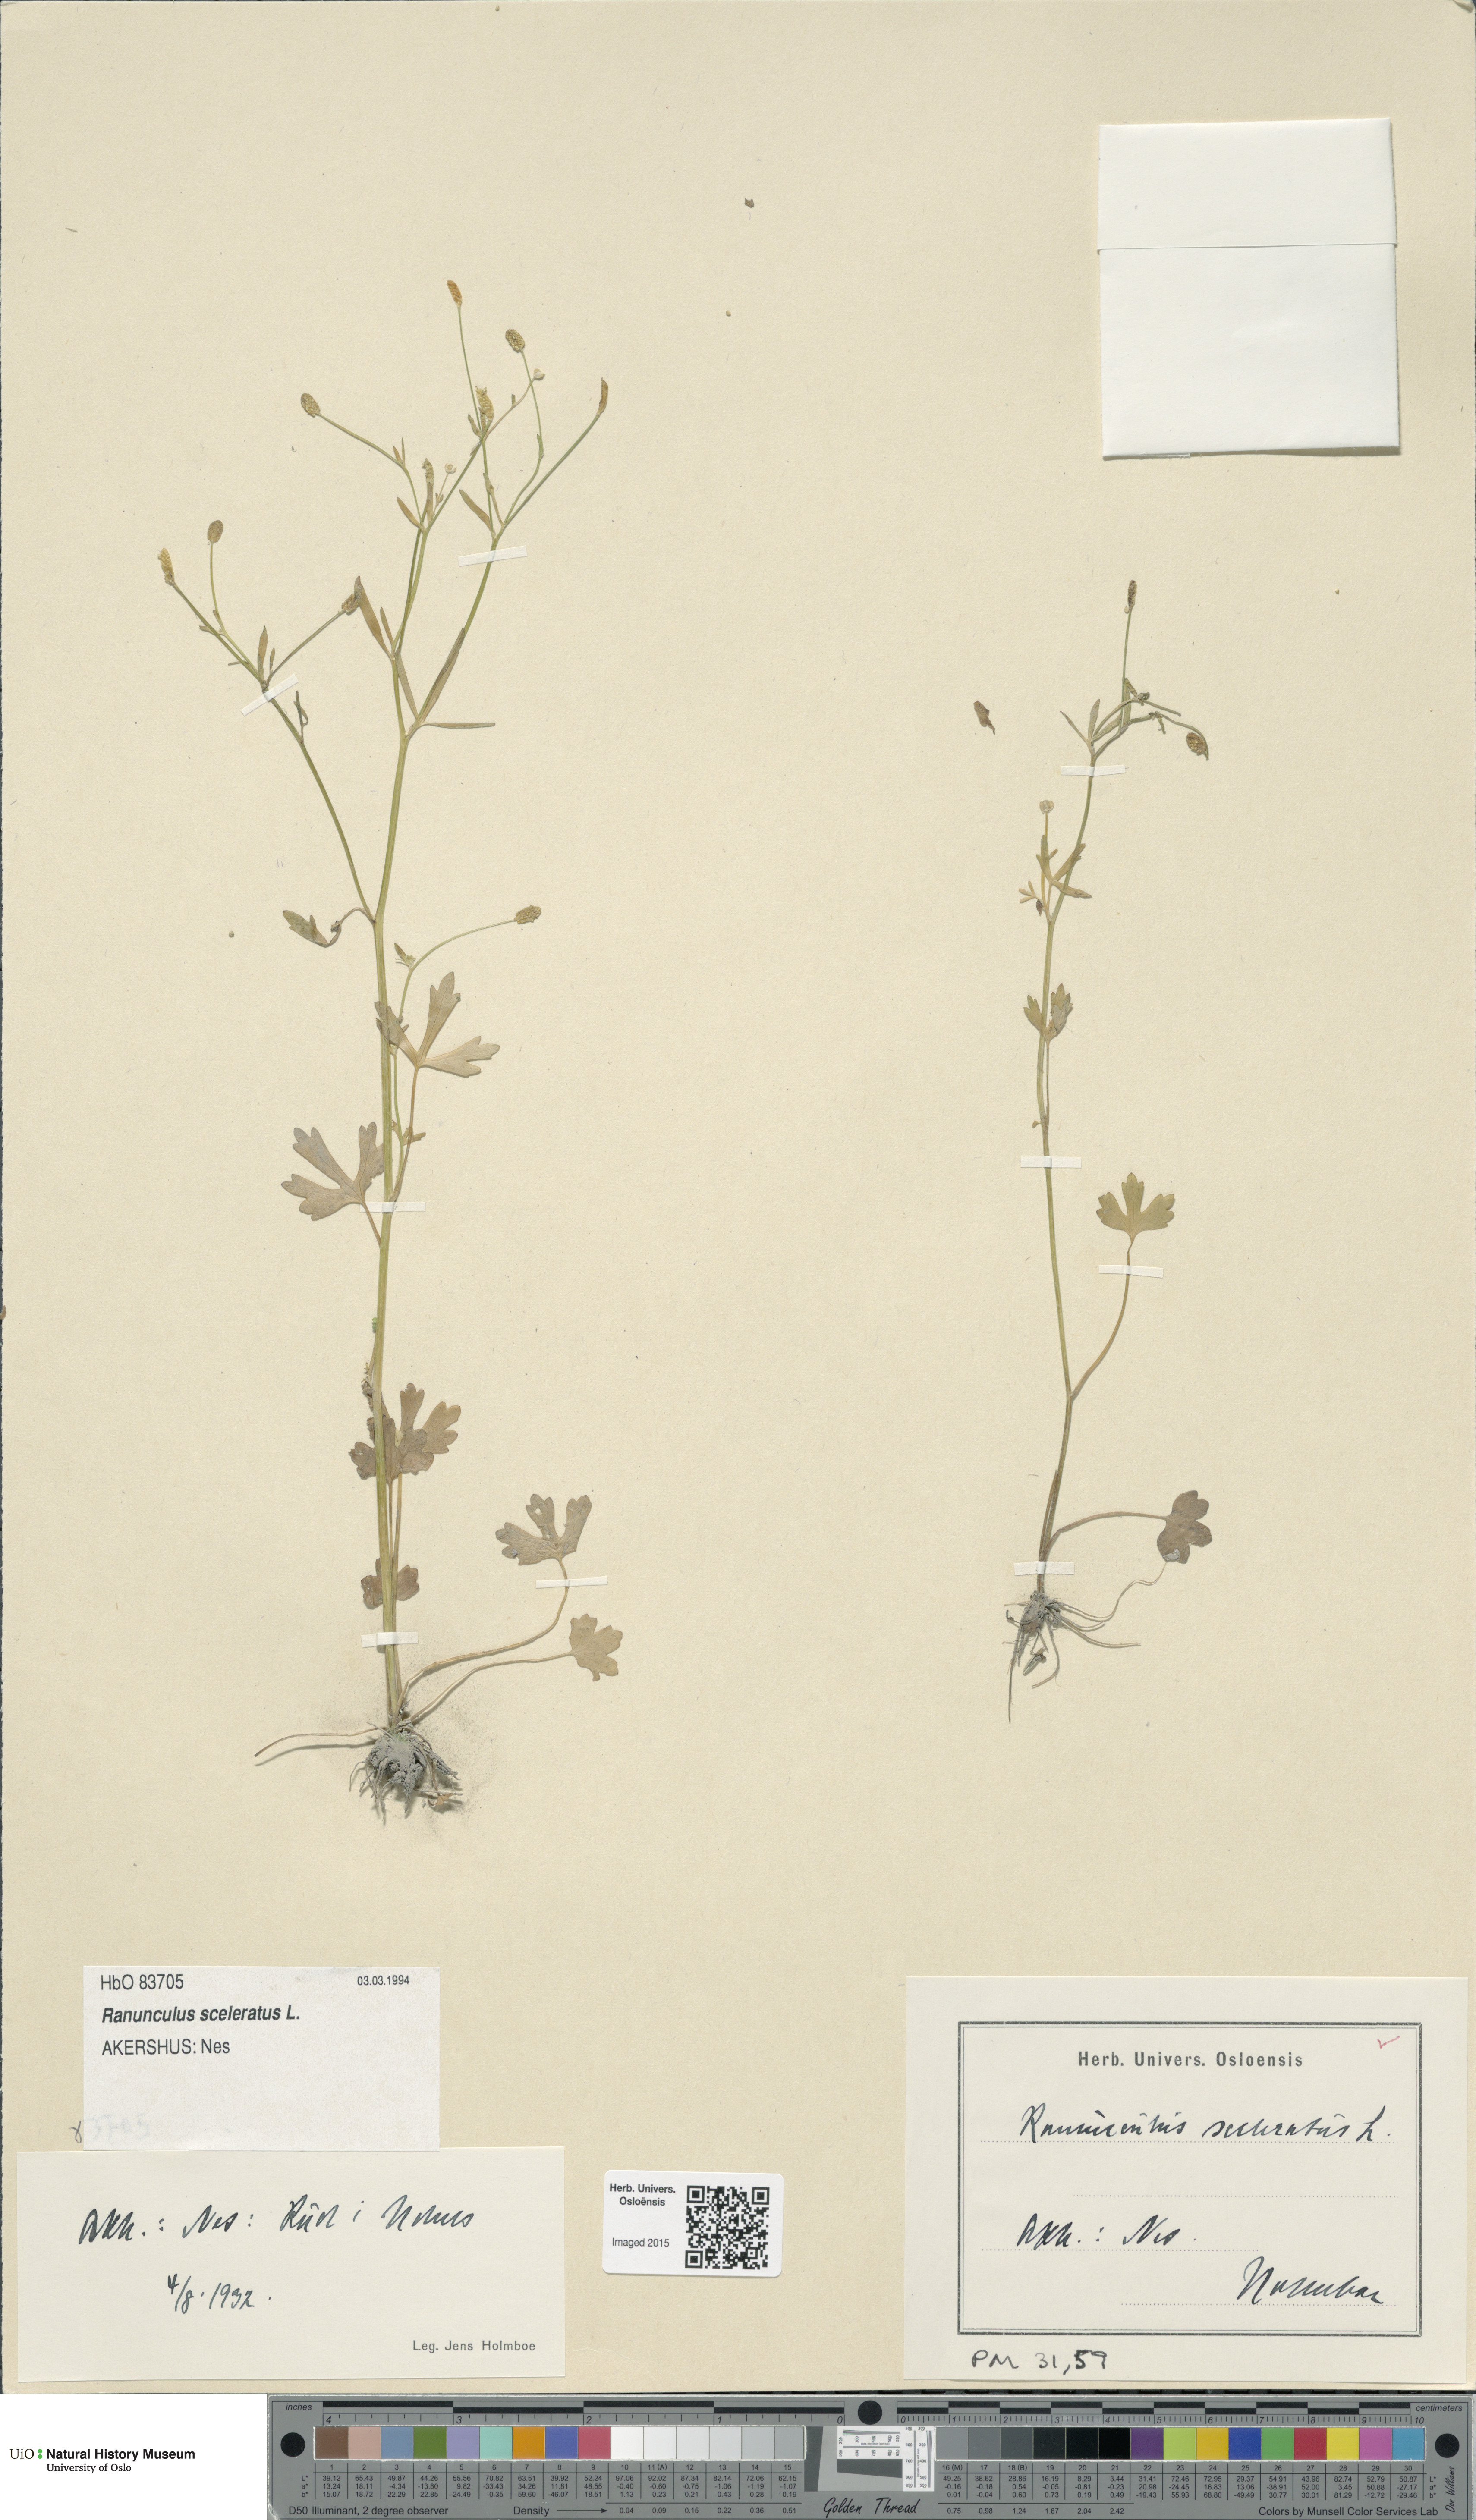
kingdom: Plantae
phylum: Tracheophyta
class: Magnoliopsida
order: Ranunculales
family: Ranunculaceae
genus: Ranunculus
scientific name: Ranunculus sceleratus
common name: Celery-leaved buttercup
